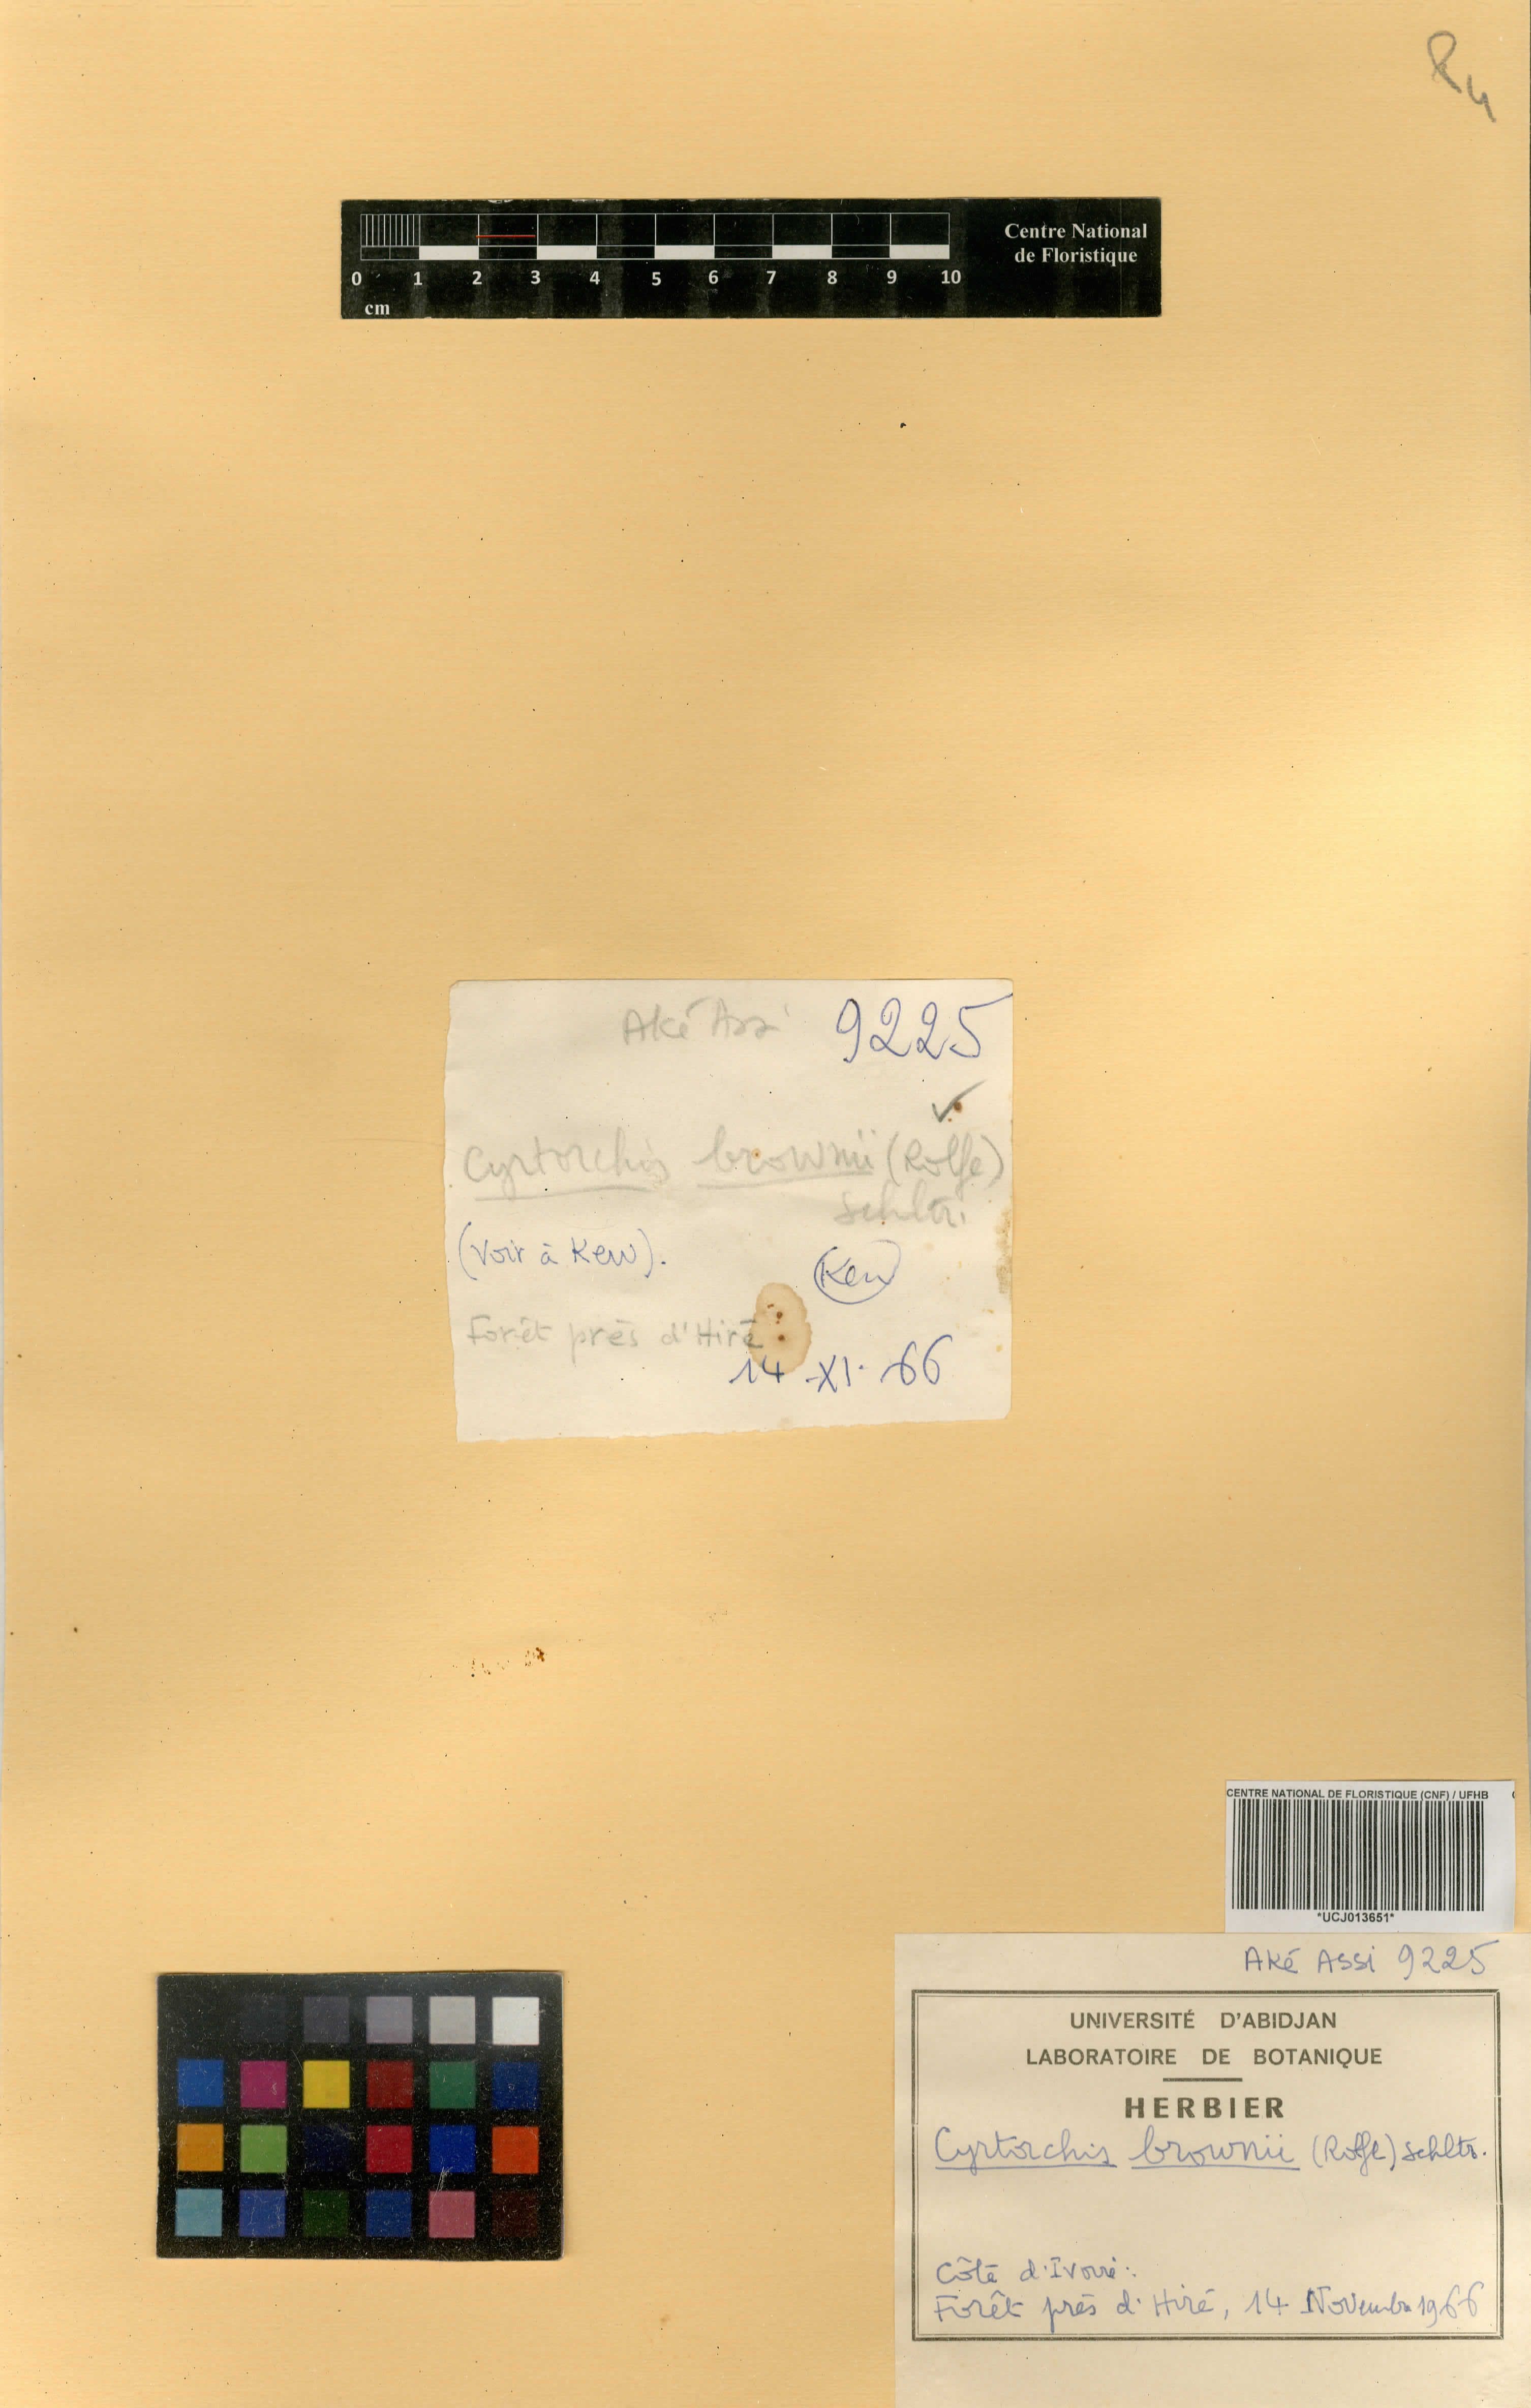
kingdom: Plantae
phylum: Tracheophyta
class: Liliopsida
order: Asparagales
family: Orchidaceae
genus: Cyrtorchis
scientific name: Cyrtorchis brownii
